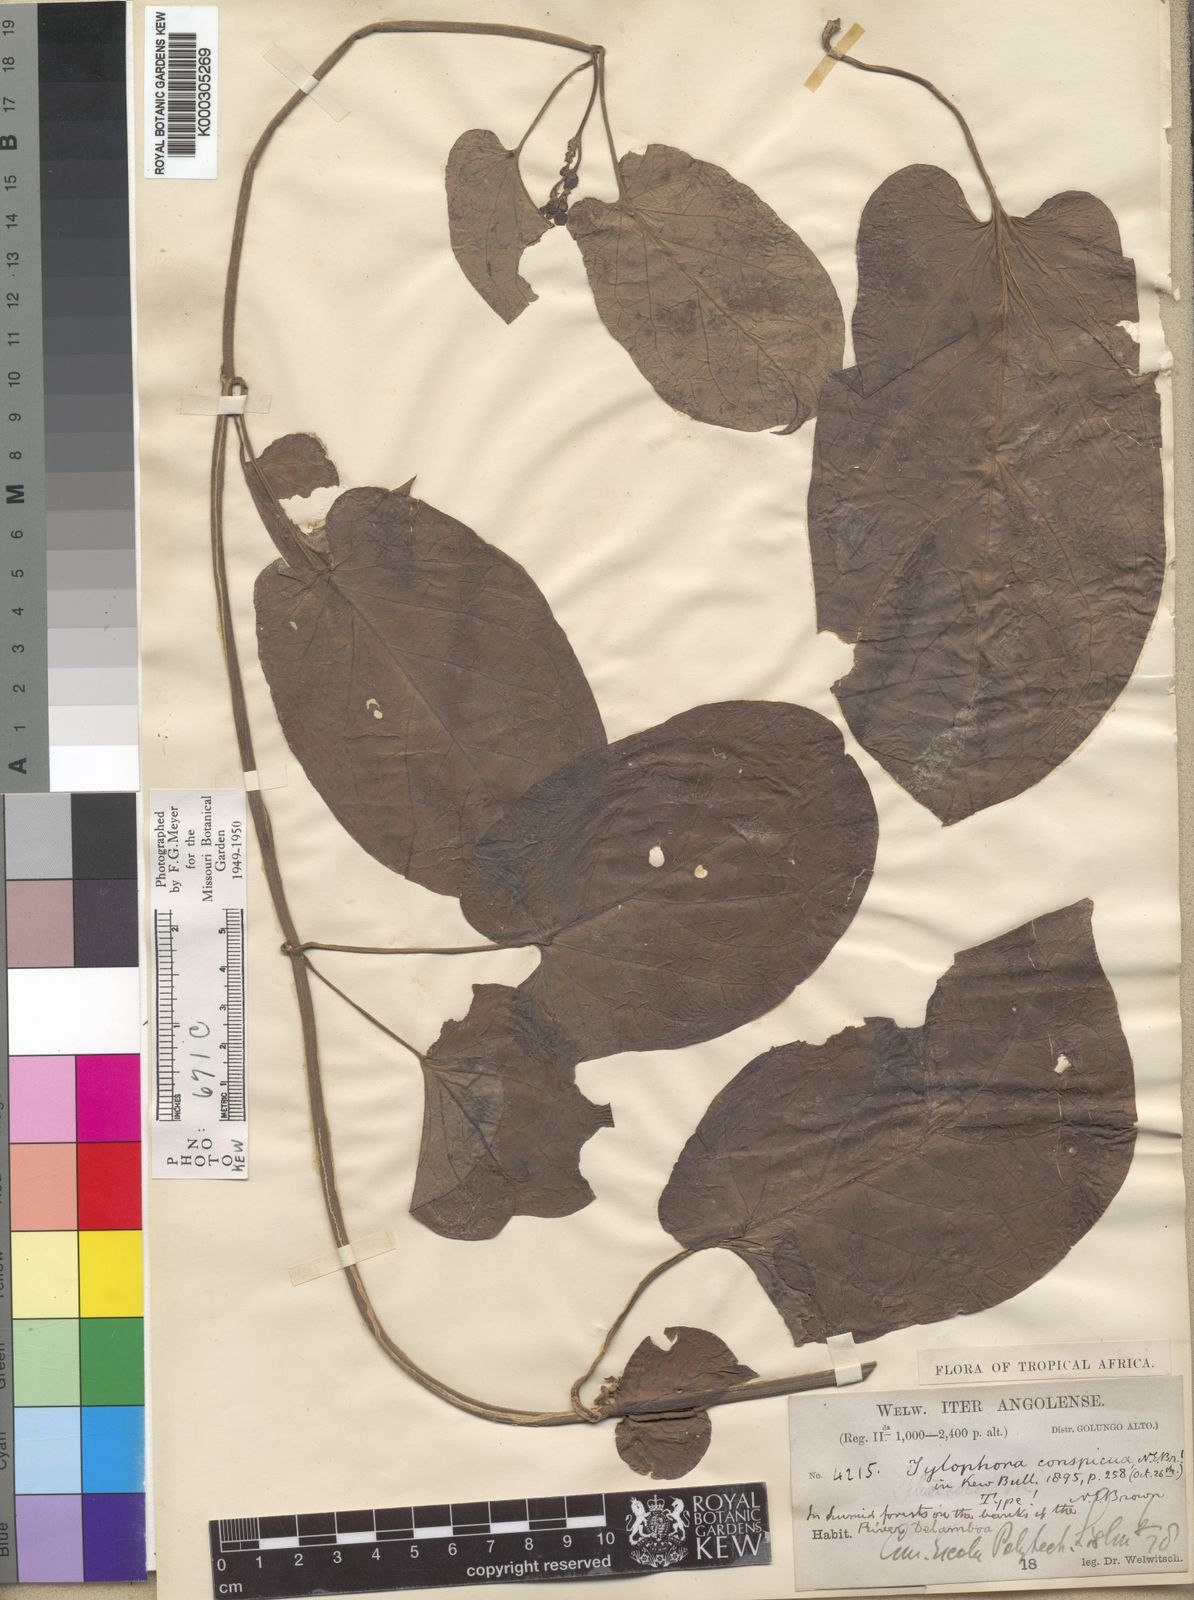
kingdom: Plantae
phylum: Tracheophyta
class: Magnoliopsida
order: Gentianales
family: Apocynaceae
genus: Vincetoxicum
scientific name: Vincetoxicum conspicuum
